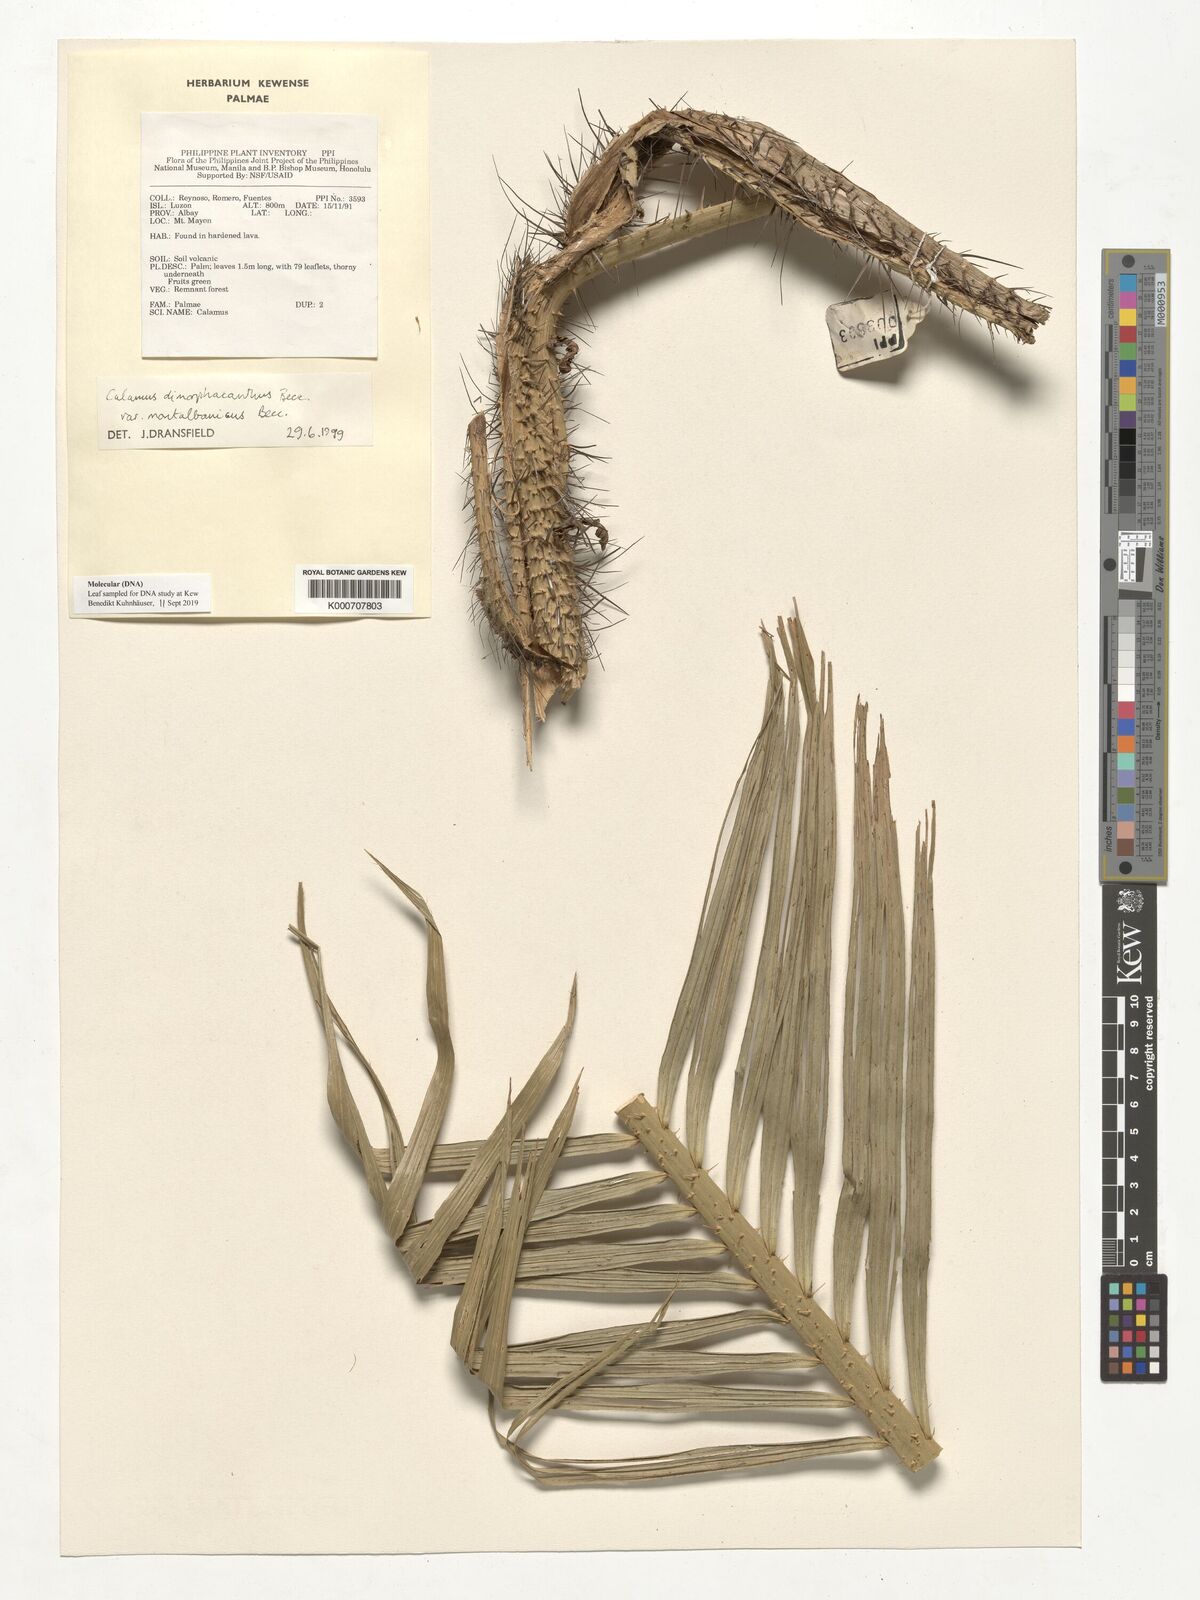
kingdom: Plantae
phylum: Tracheophyta
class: Liliopsida
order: Arecales
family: Arecaceae
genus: Calamus
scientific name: Calamus
